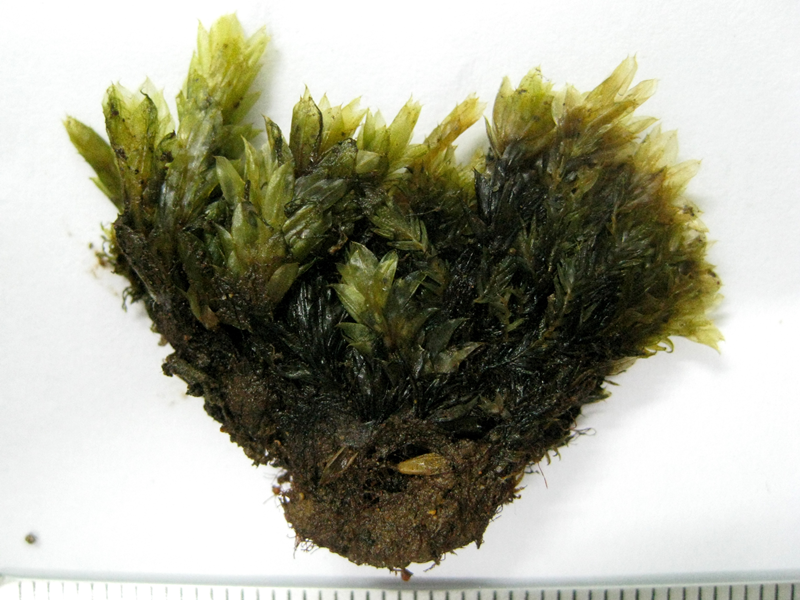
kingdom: Plantae
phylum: Bryophyta
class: Bryopsida
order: Bryales
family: Bryaceae
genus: Bryum
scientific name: Bryum
